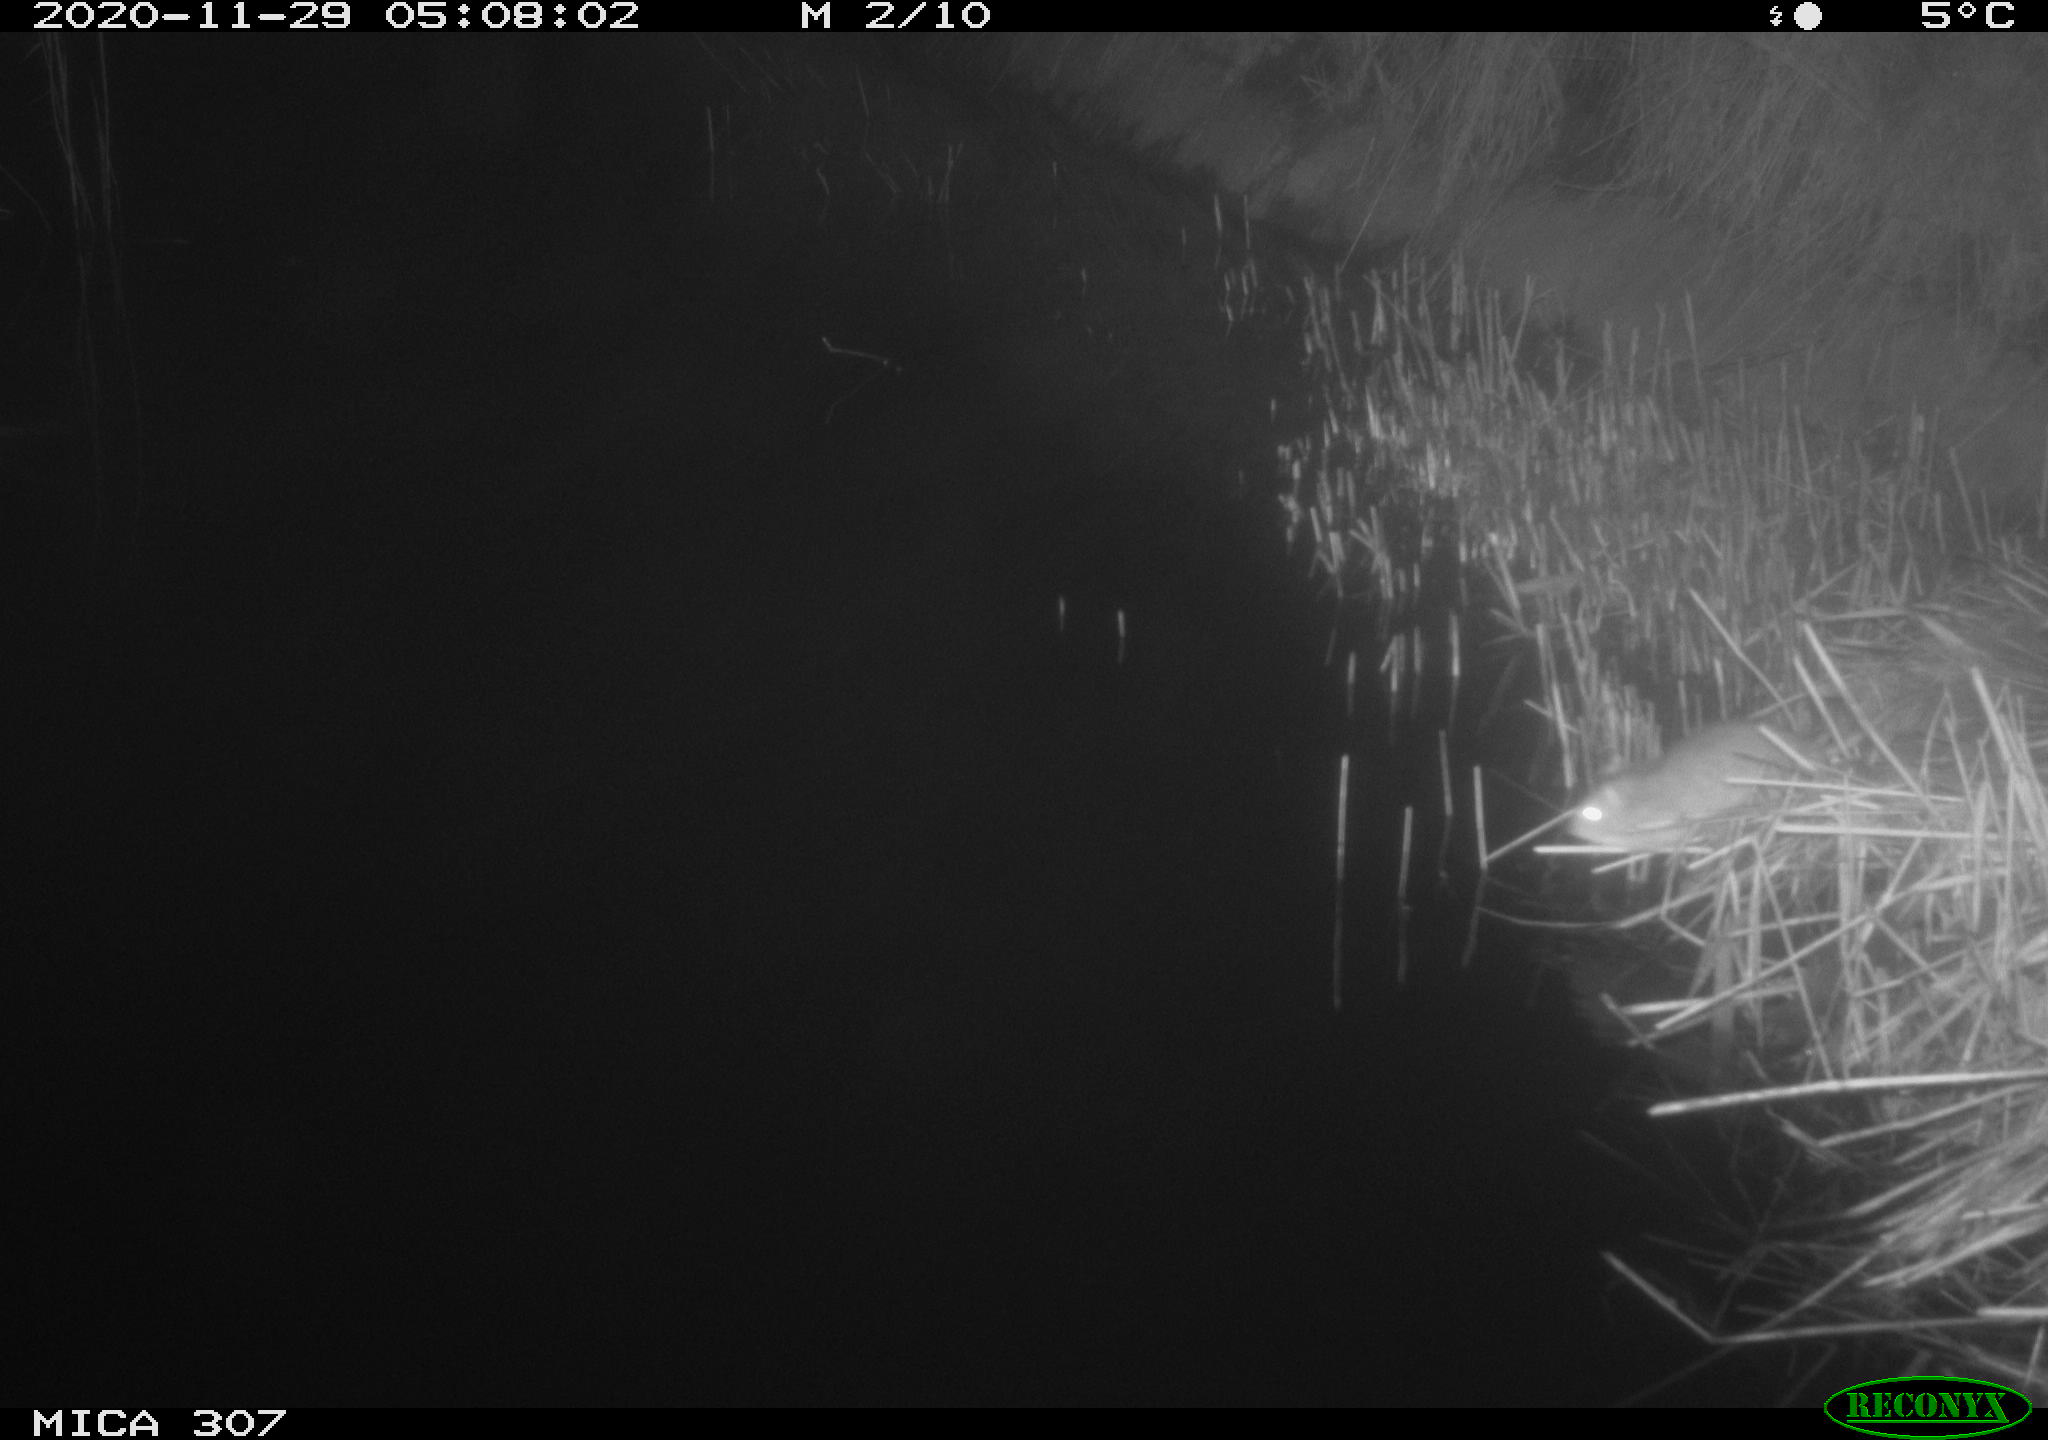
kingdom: Animalia
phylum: Chordata
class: Mammalia
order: Rodentia
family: Muridae
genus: Rattus
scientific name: Rattus norvegicus
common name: Brown rat
